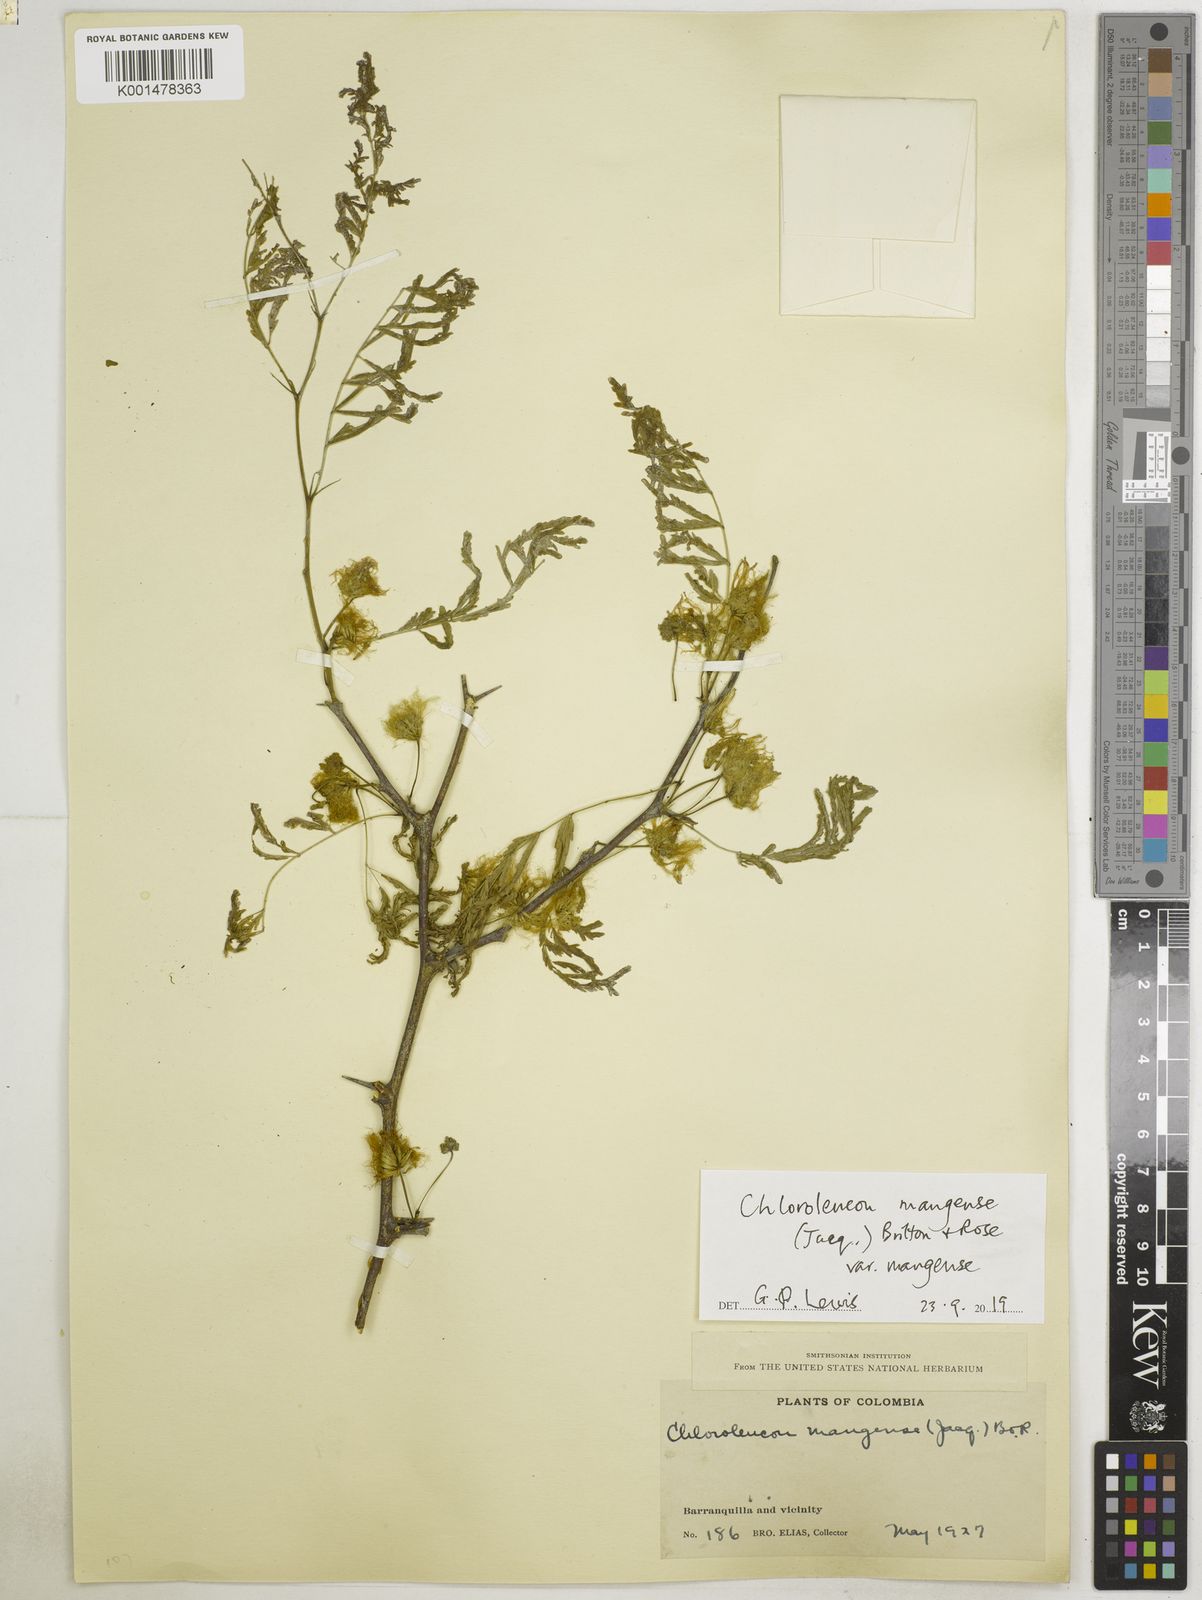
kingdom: Plantae
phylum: Tracheophyta
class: Magnoliopsida
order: Fabales
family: Fabaceae
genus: Chloroleucon
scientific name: Chloroleucon mangense
